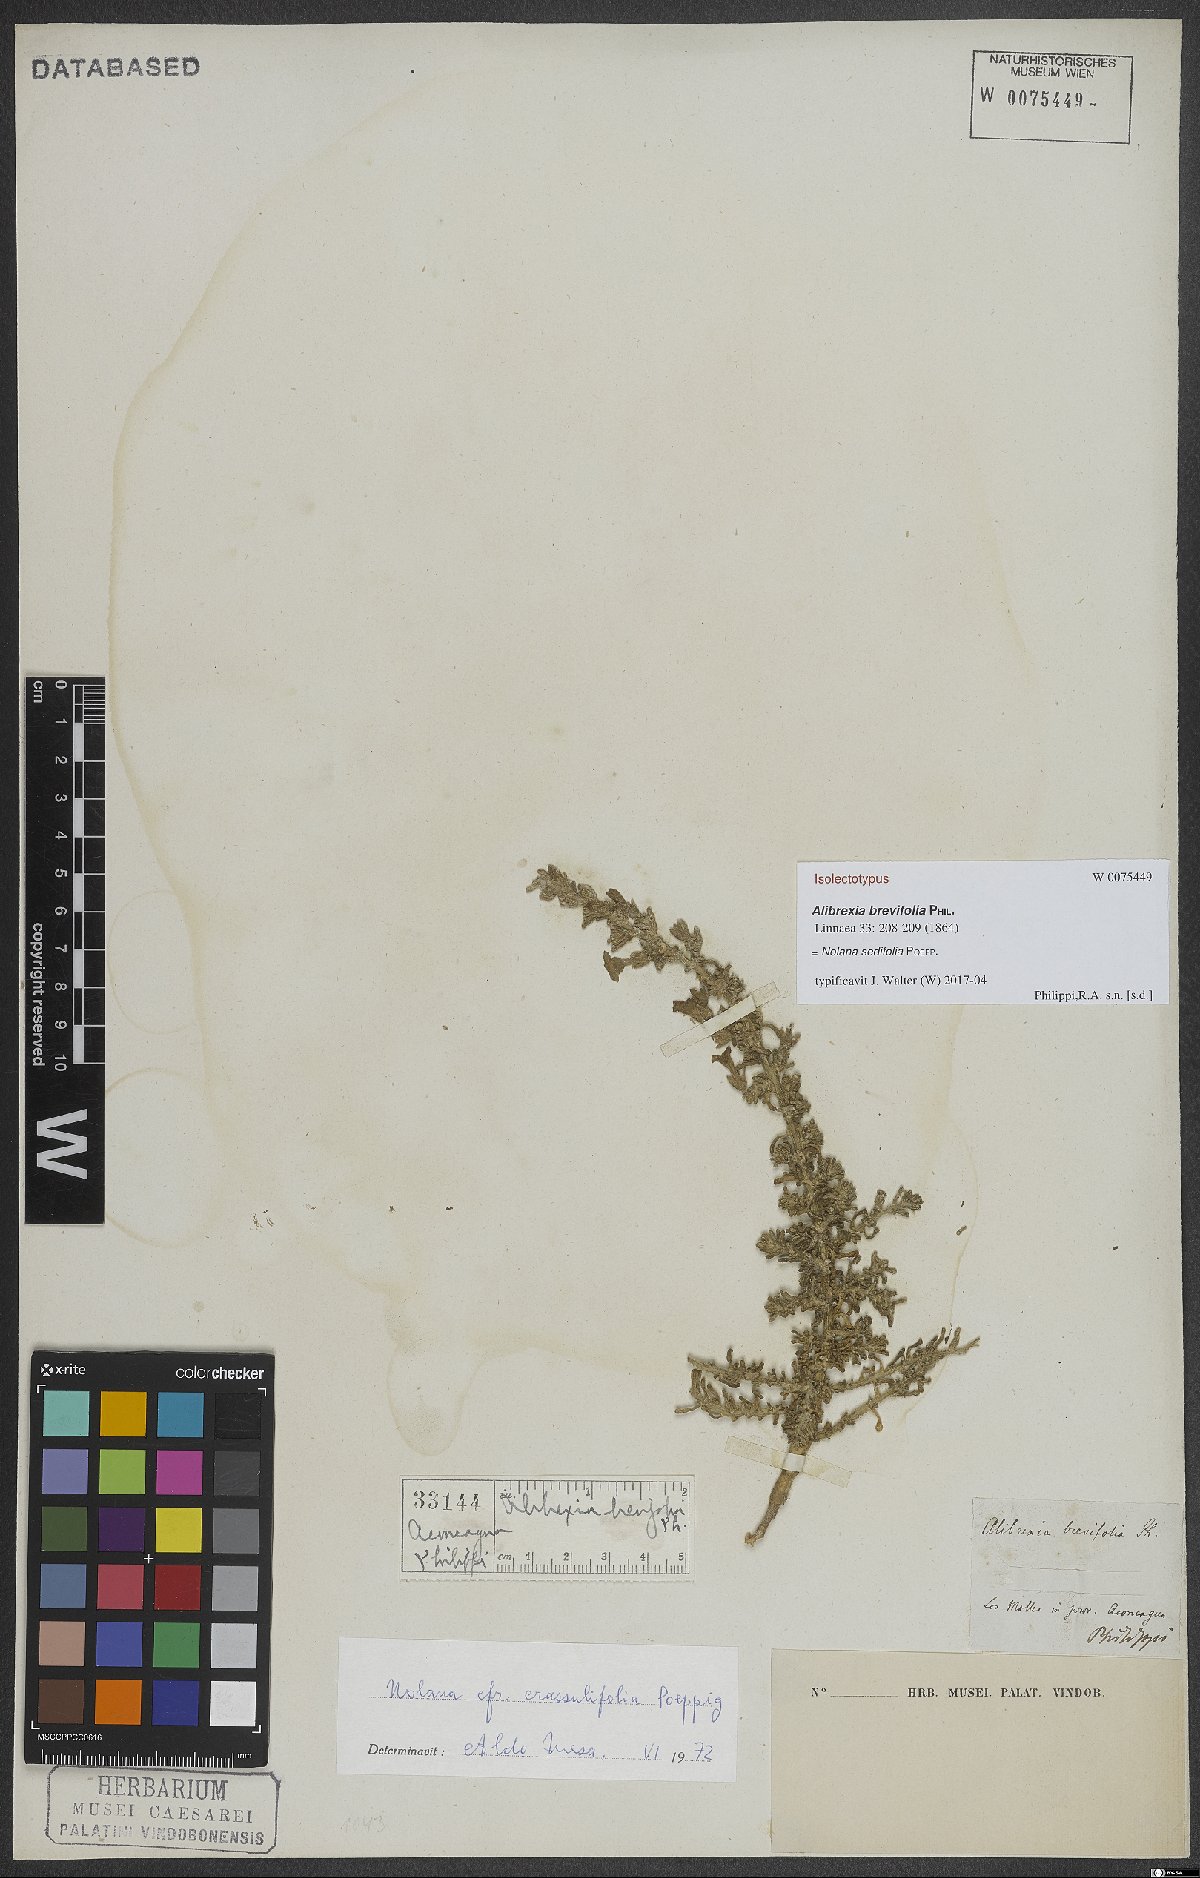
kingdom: Plantae
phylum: Tracheophyta
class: Magnoliopsida
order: Solanales
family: Solanaceae
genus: Nolana
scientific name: Nolana sedifolia
